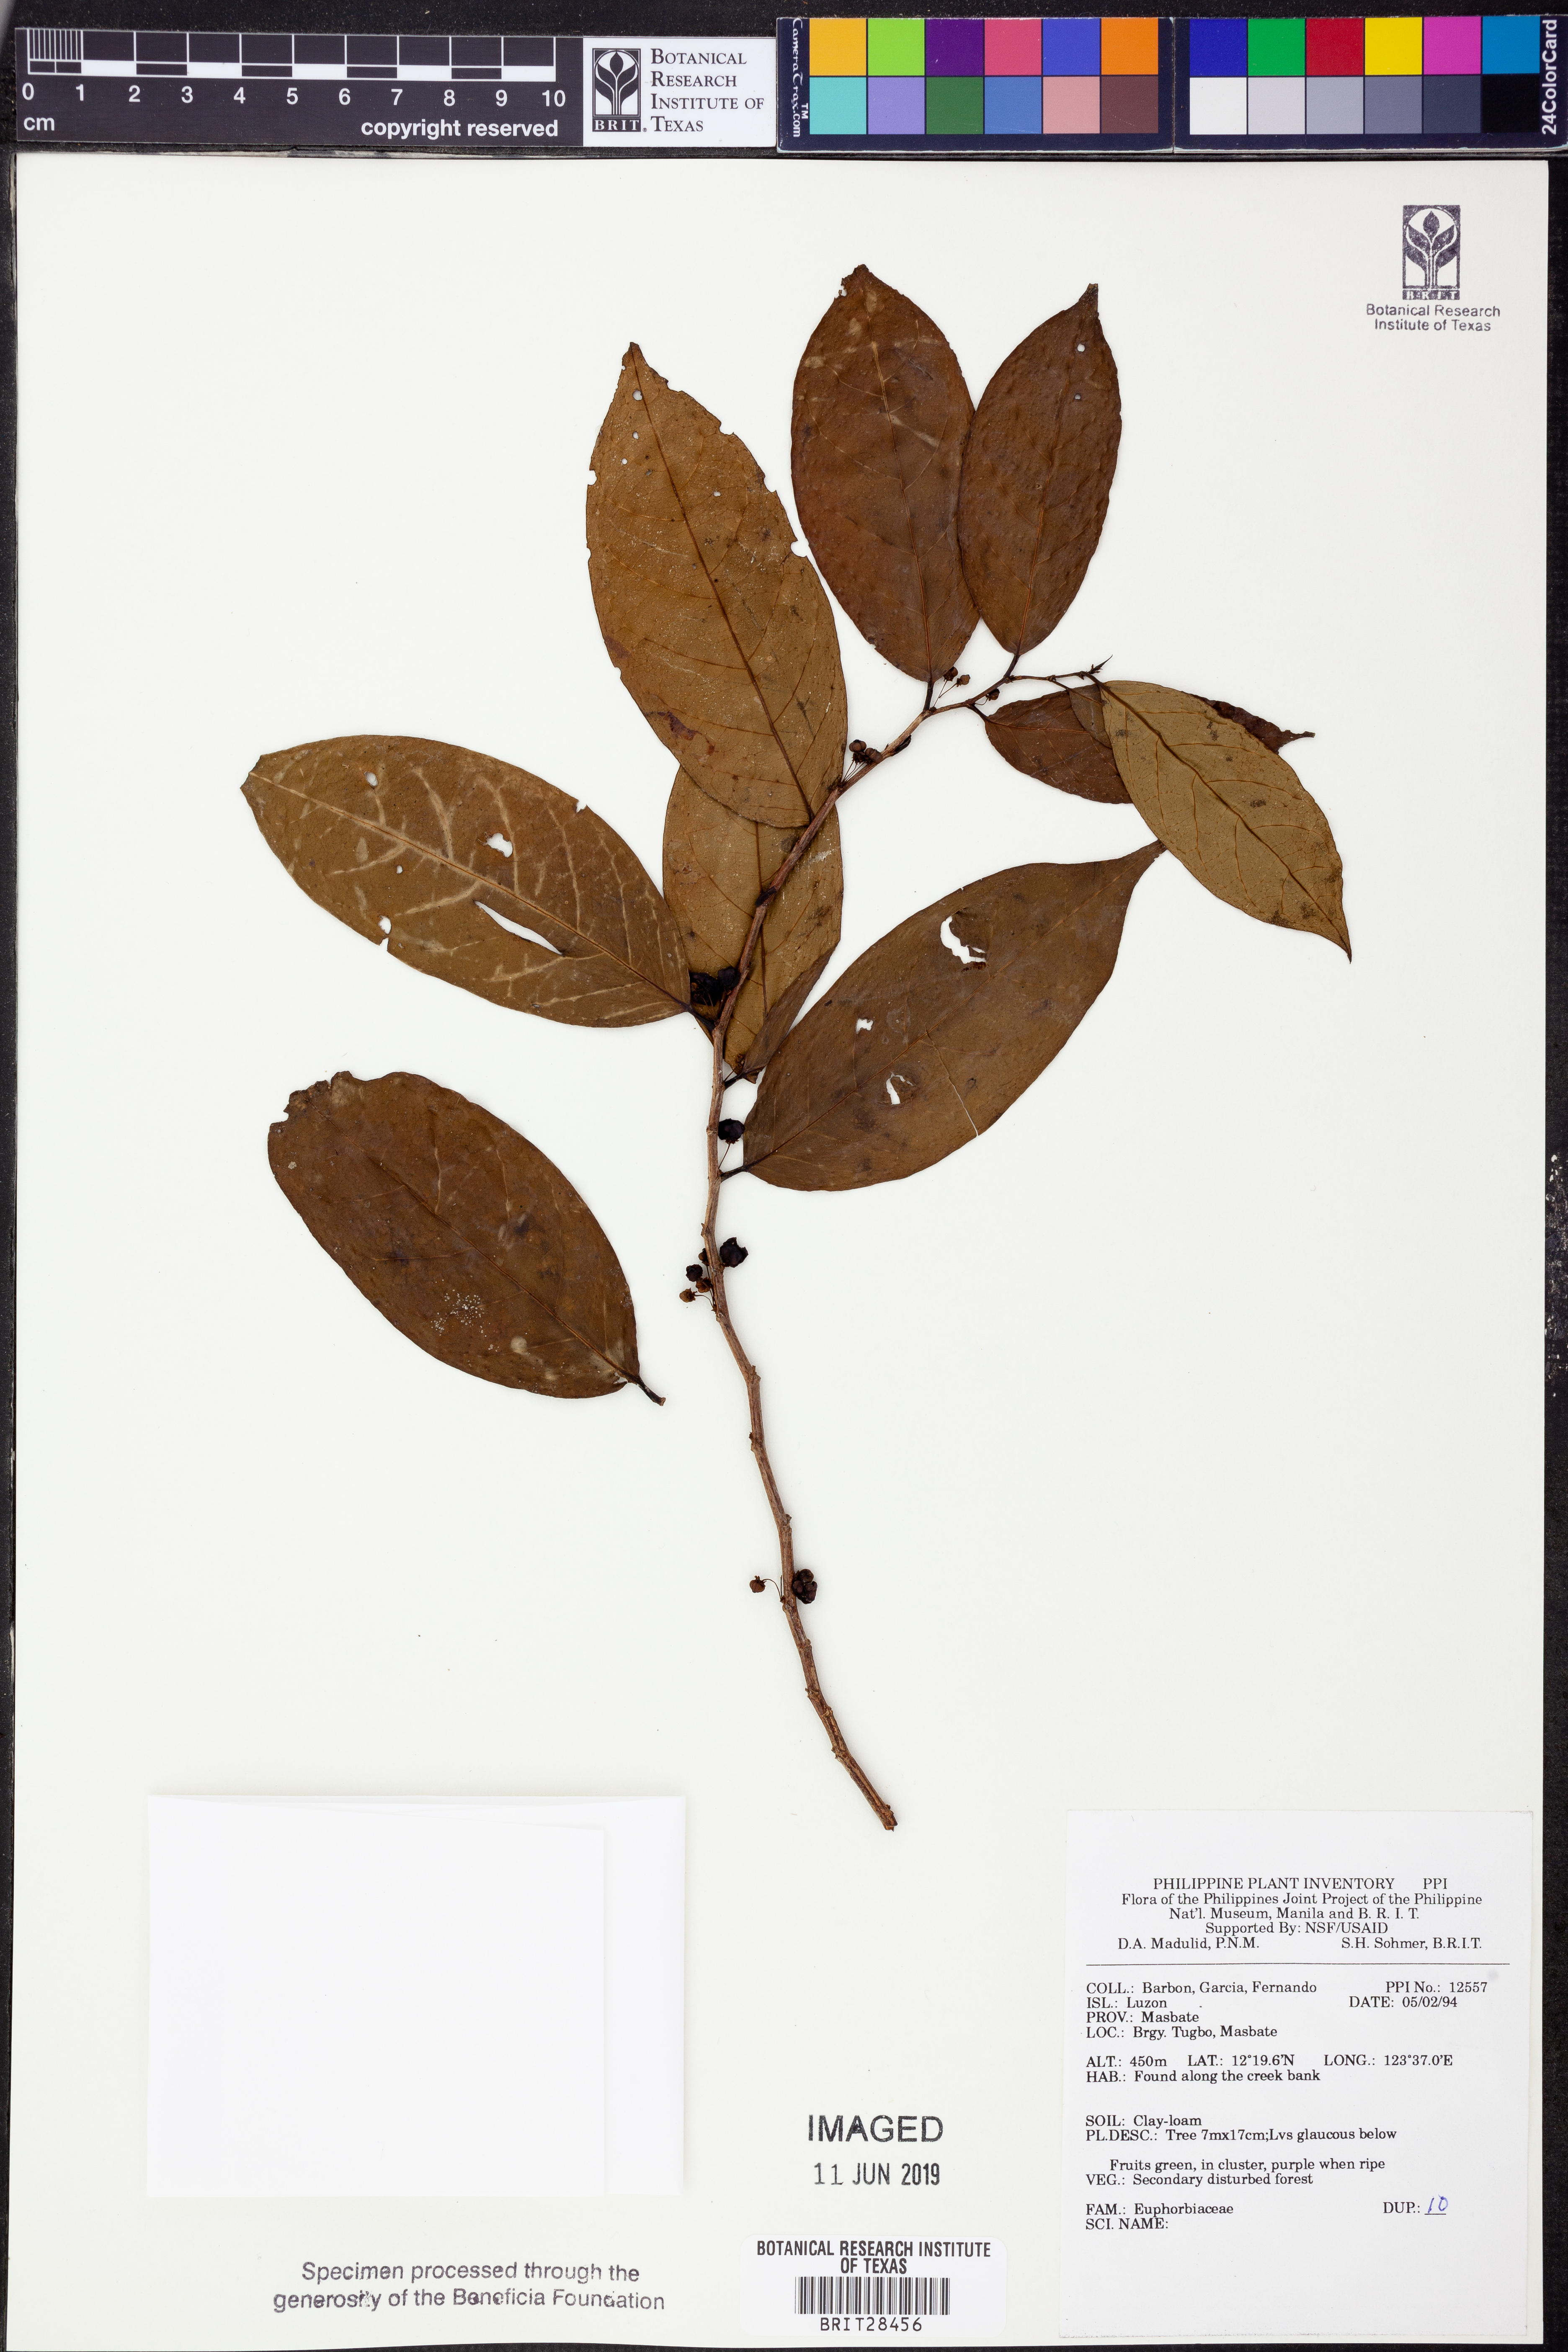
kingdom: Plantae
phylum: Tracheophyta
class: Magnoliopsida
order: Malpighiales
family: Euphorbiaceae
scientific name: Euphorbiaceae
